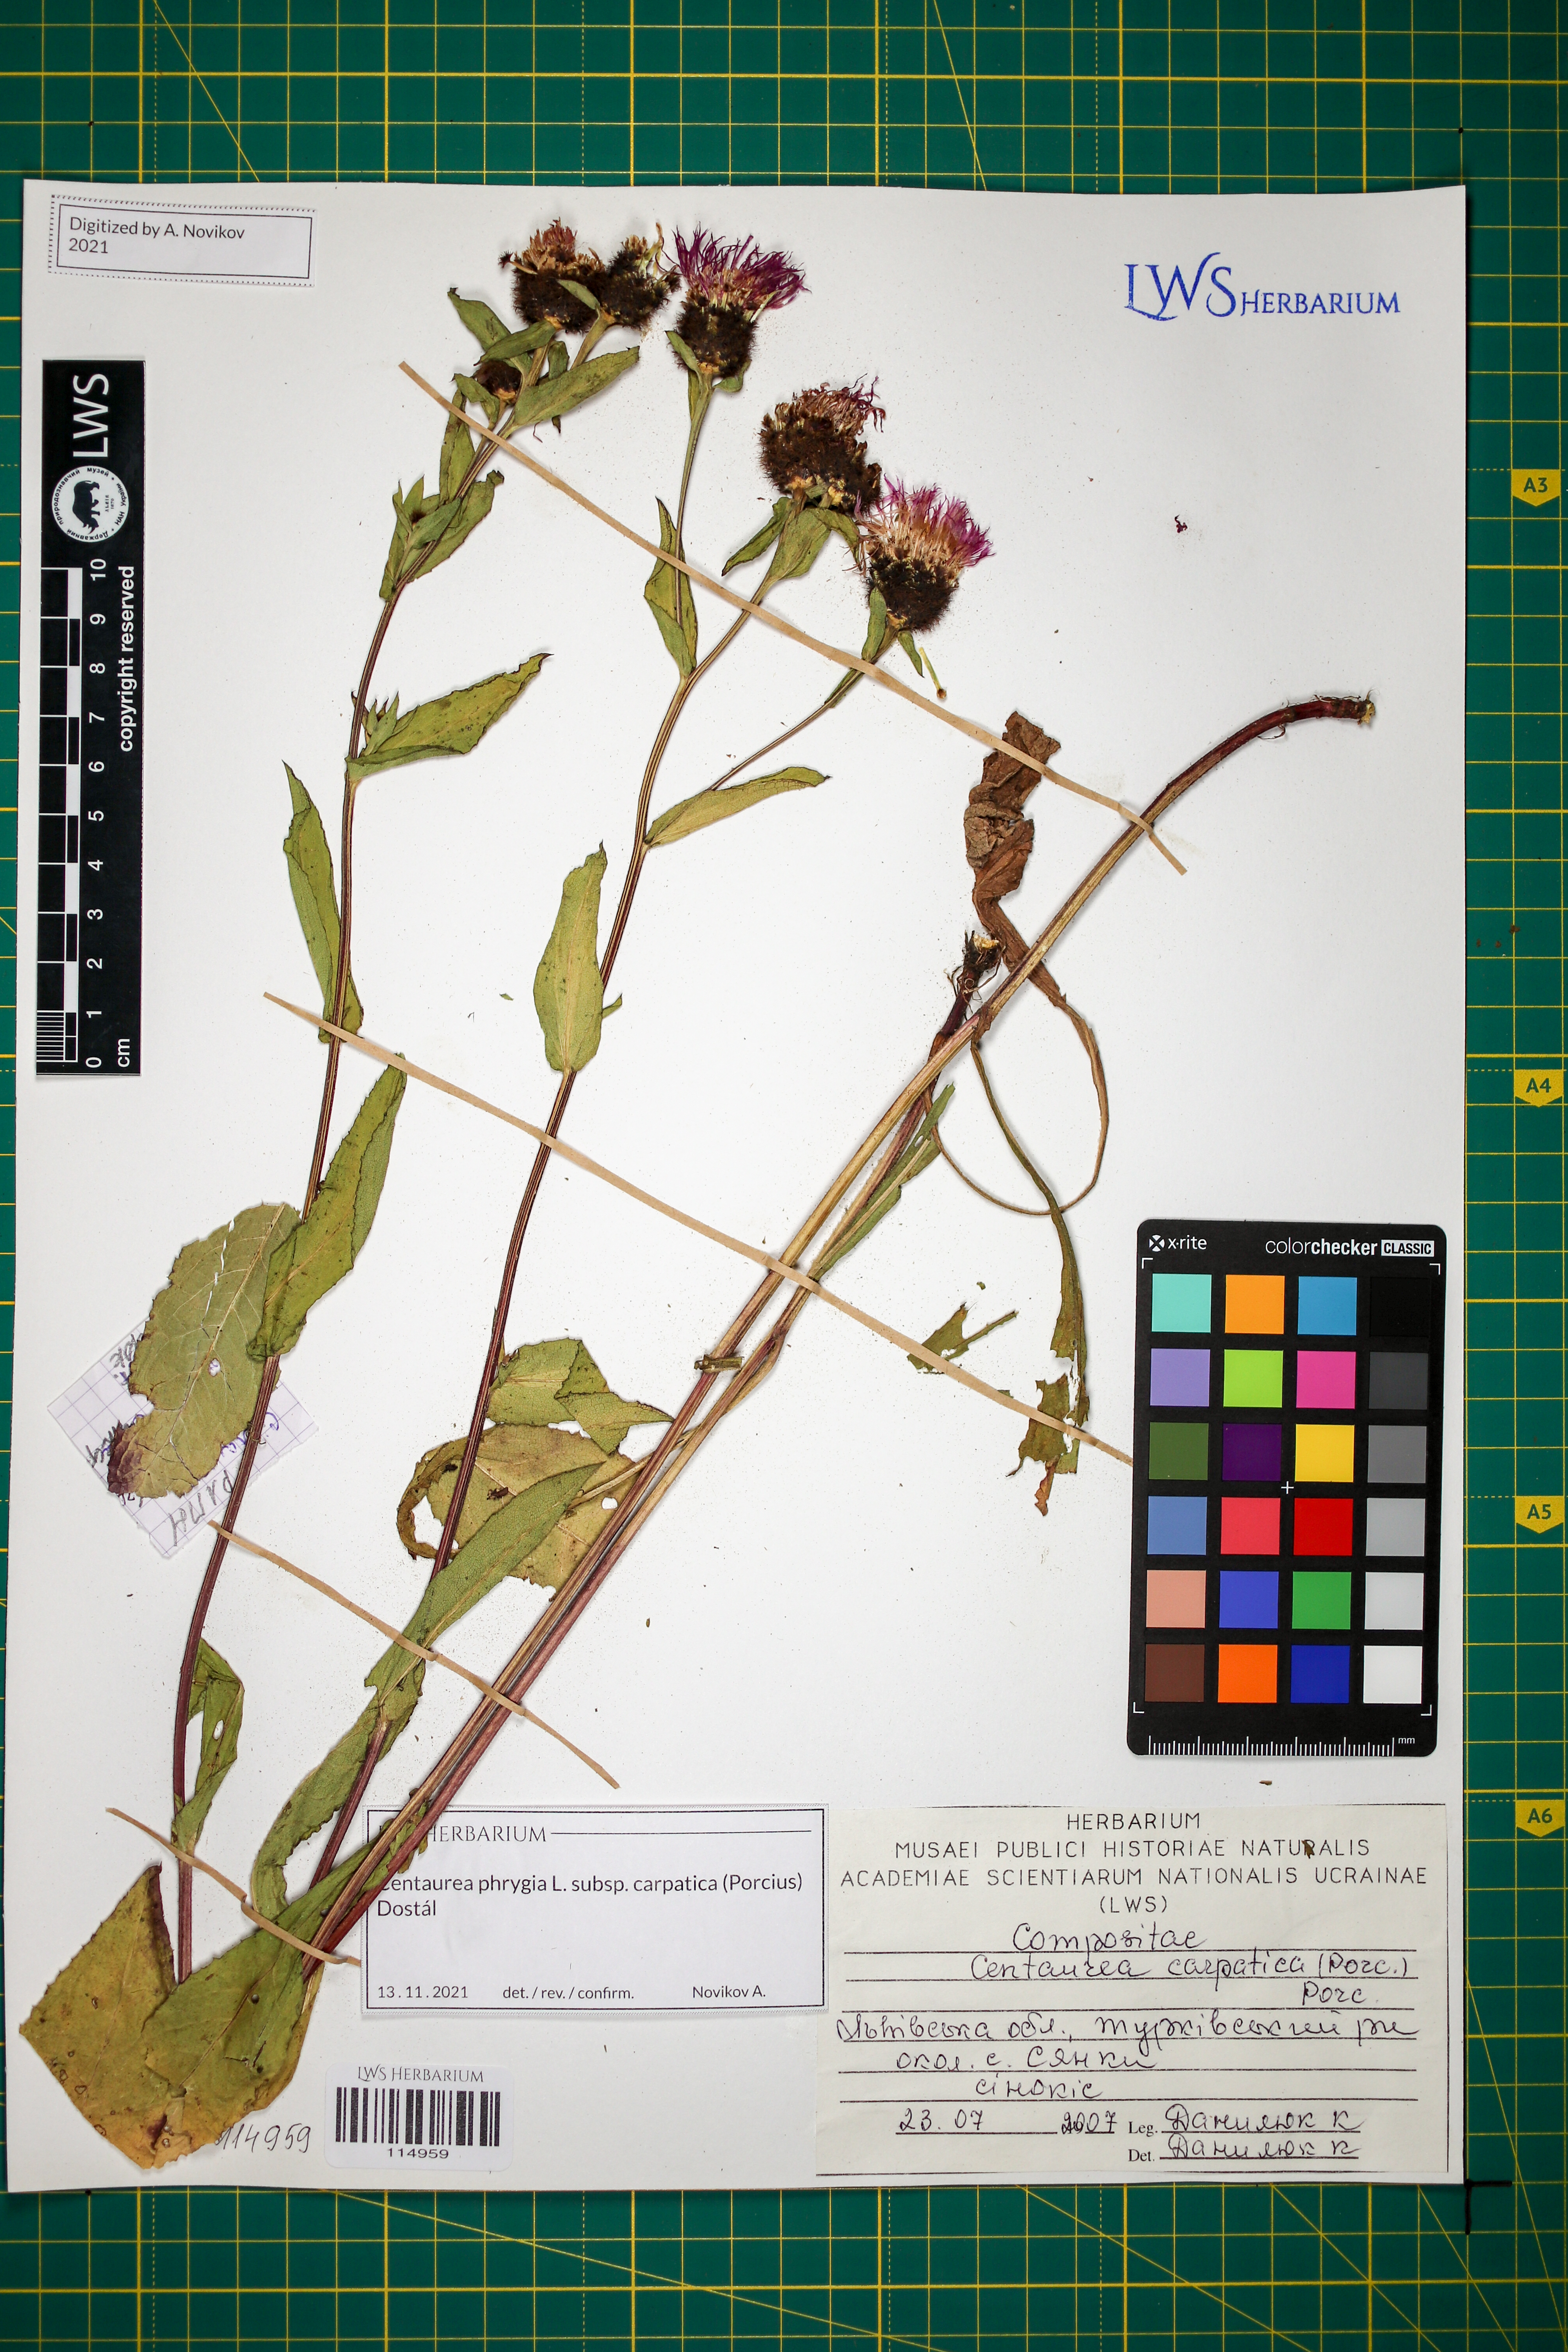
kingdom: Plantae
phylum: Tracheophyta
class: Magnoliopsida
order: Asterales
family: Asteraceae
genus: Centaurea
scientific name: Centaurea phrygia
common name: Wig knapweed
